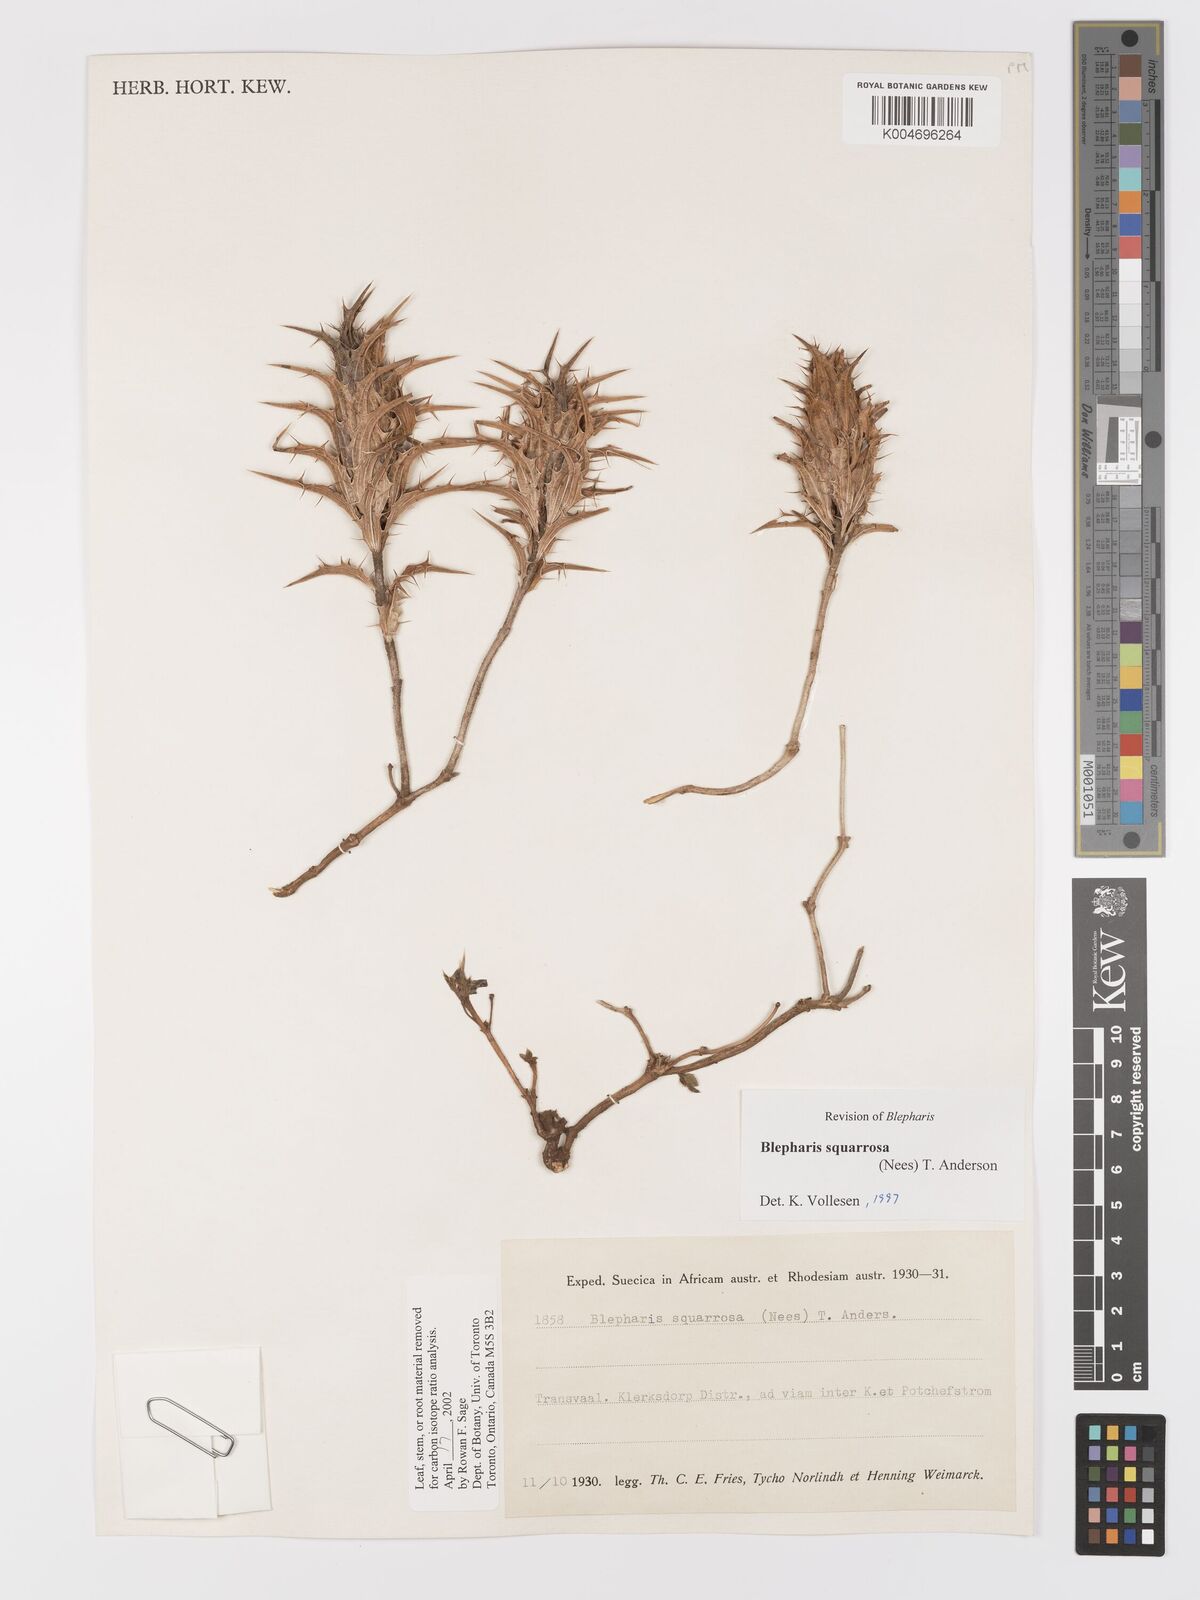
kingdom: Plantae
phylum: Tracheophyta
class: Magnoliopsida
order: Lamiales
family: Acanthaceae
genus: Blepharis
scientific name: Blepharis squarrosa
